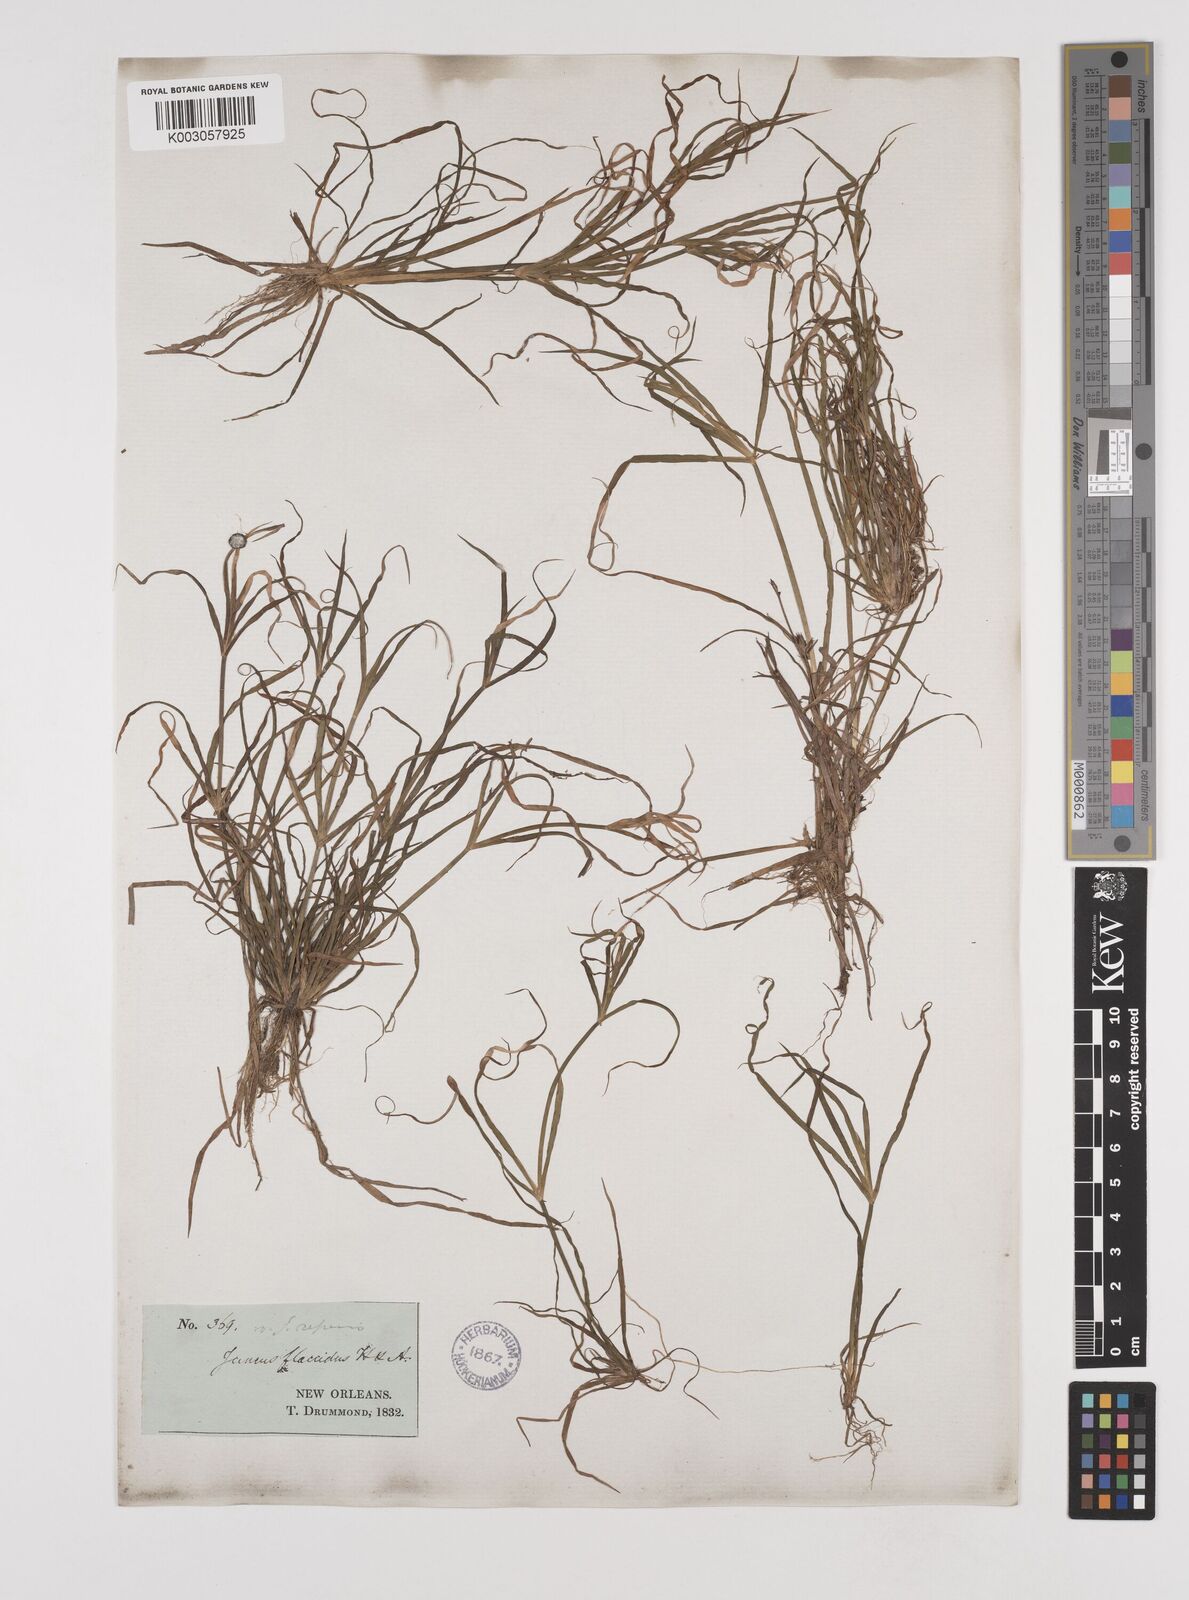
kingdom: Plantae
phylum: Tracheophyta
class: Liliopsida
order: Poales
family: Juncaceae
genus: Juncus
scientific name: Juncus repens
